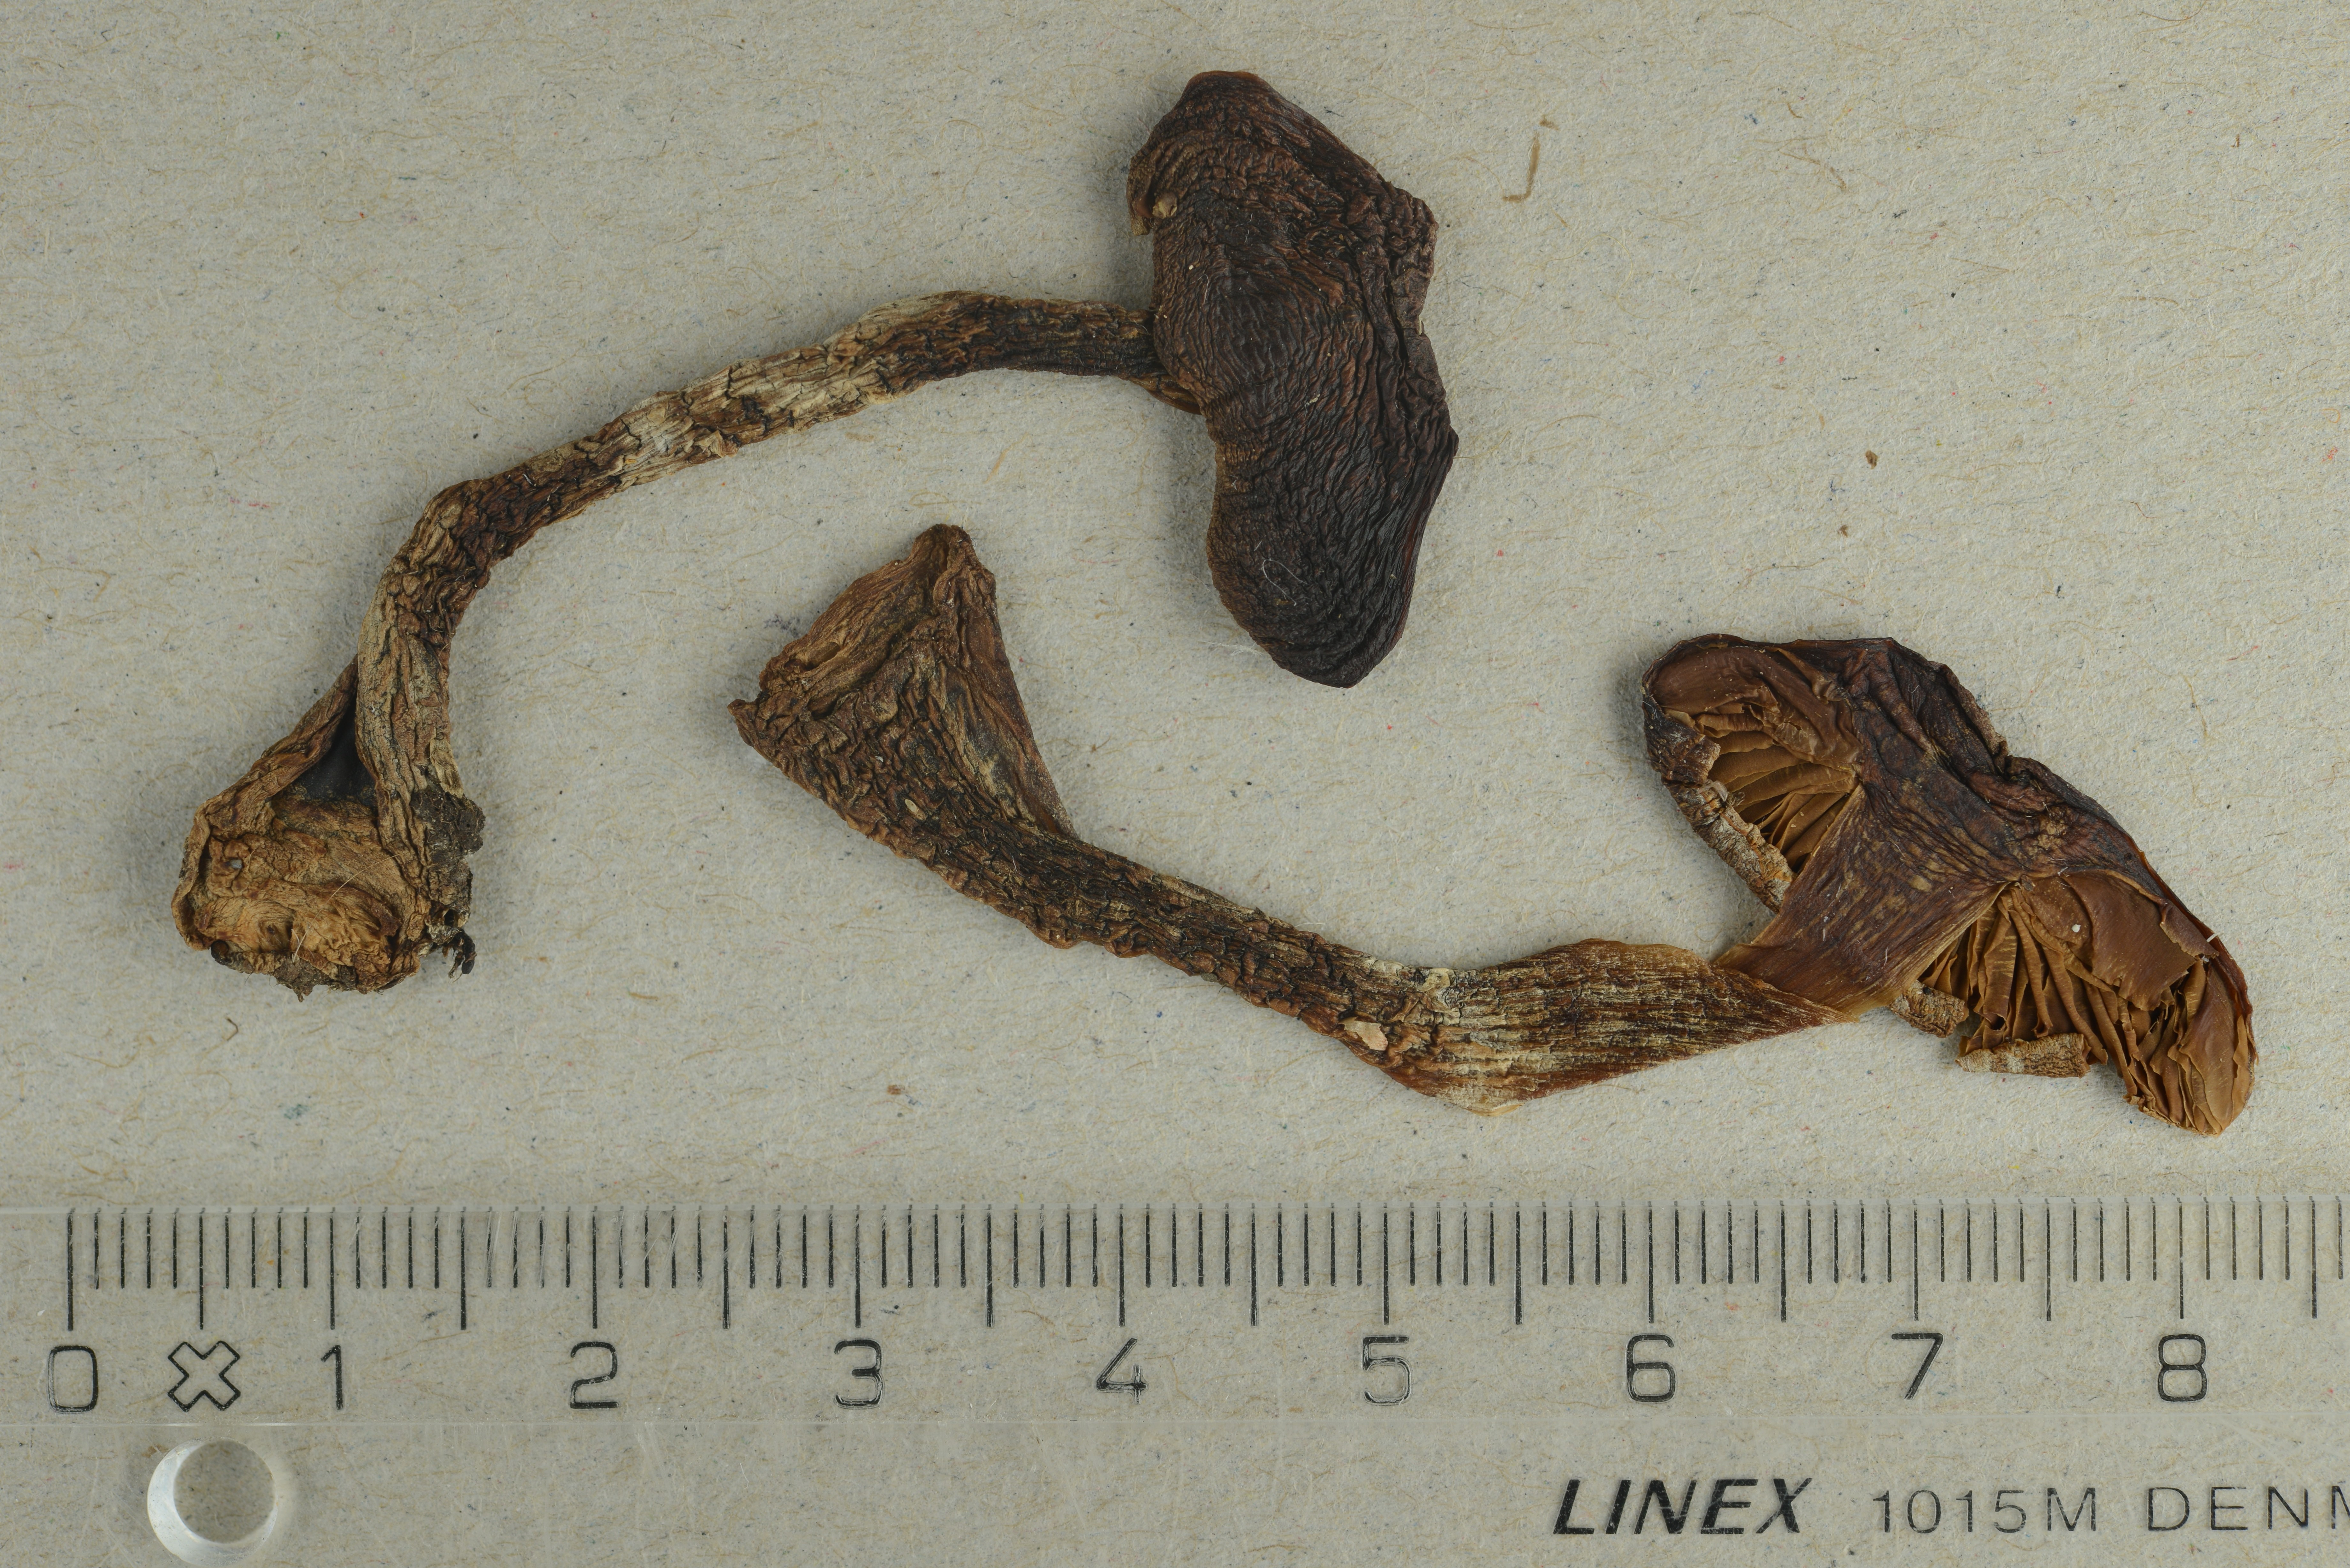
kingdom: Fungi
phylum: Basidiomycota
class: Agaricomycetes
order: Agaricales
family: Cortinariaceae
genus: Cortinarius
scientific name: Cortinarius biformis
